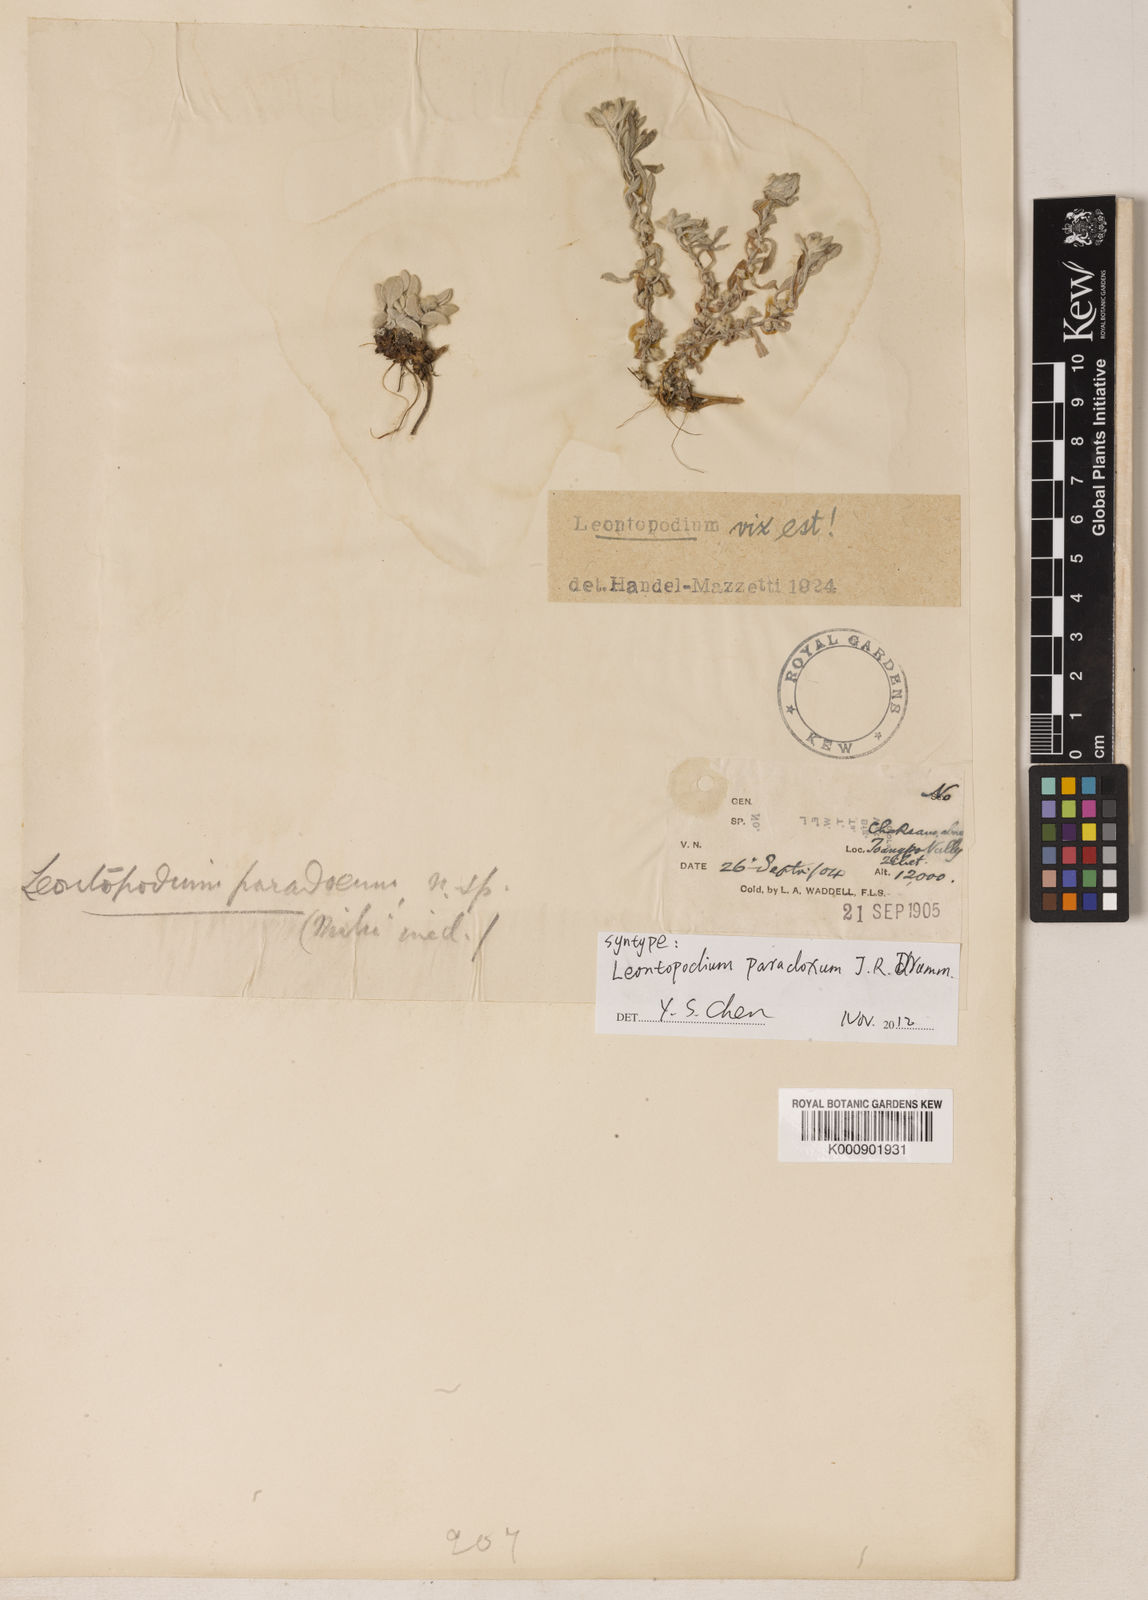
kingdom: Plantae
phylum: Tracheophyta
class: Magnoliopsida
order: Asterales
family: Asteraceae
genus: Leontopodium
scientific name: Leontopodium paradoxum
